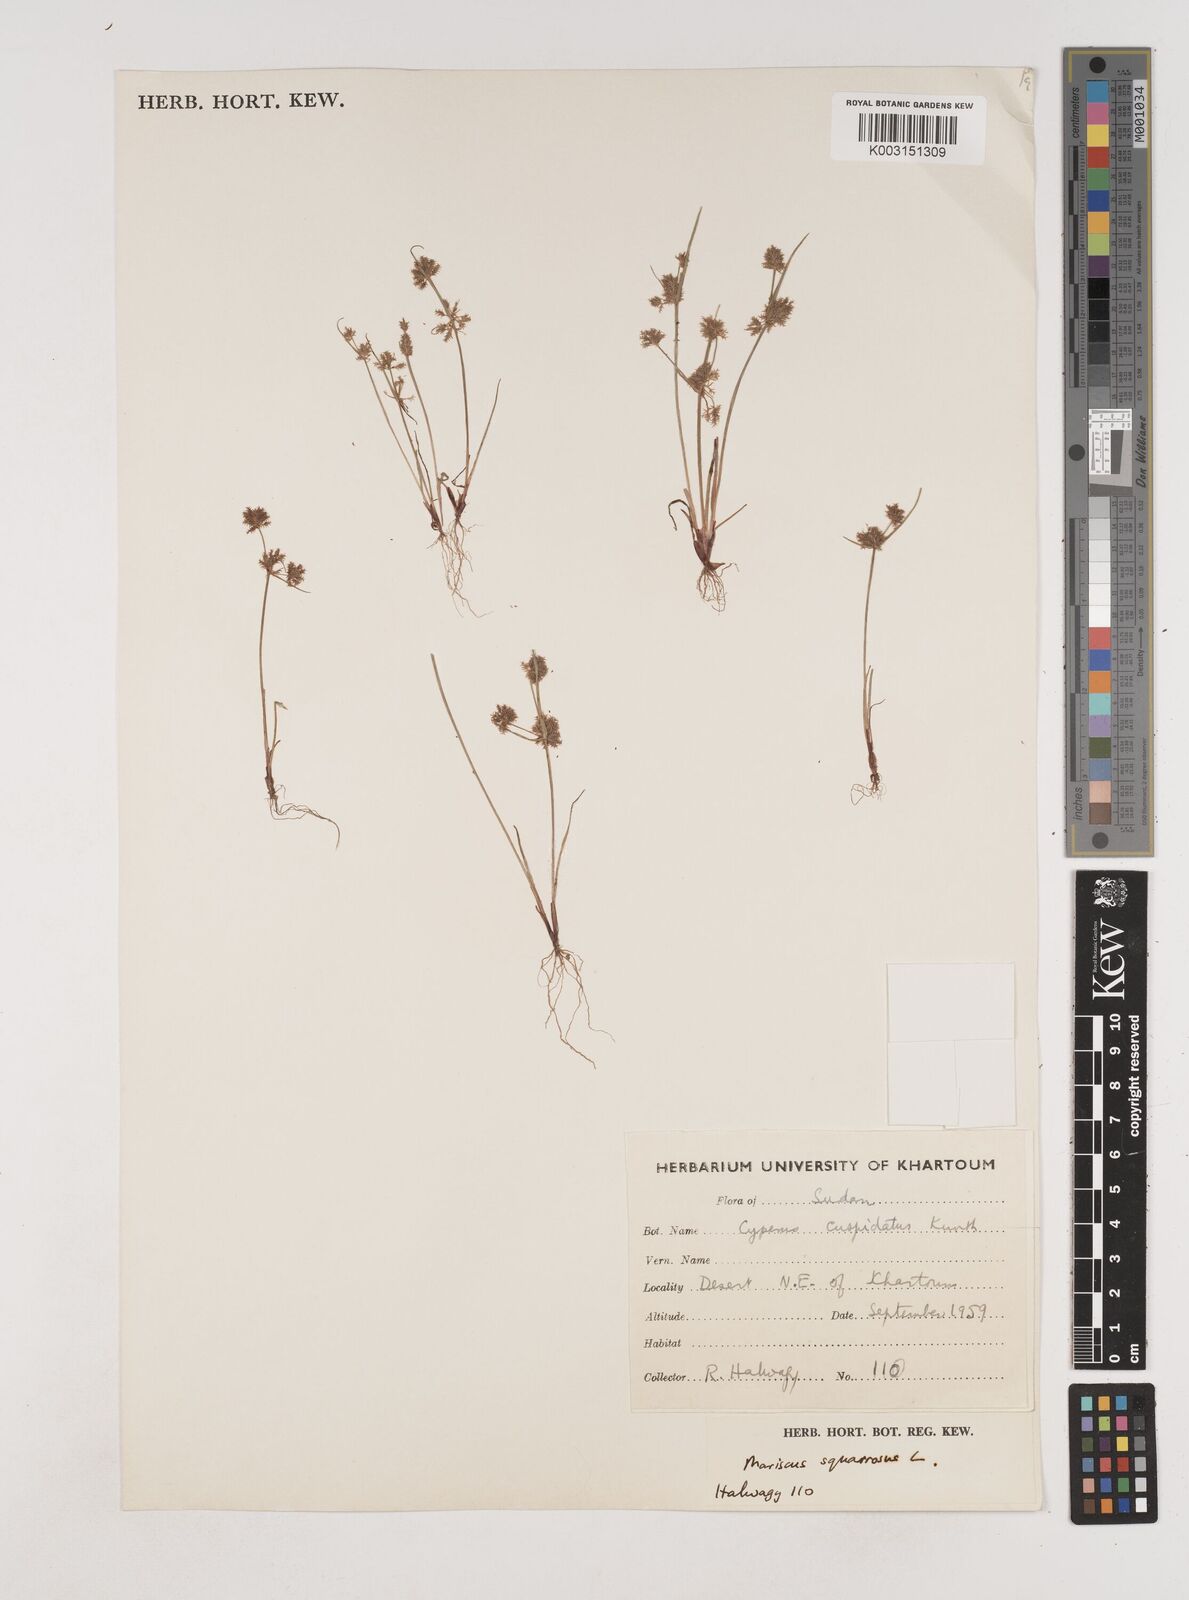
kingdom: Plantae
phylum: Tracheophyta
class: Liliopsida
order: Poales
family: Cyperaceae
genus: Cyperus
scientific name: Cyperus squarrosus
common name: Awned cyperus
